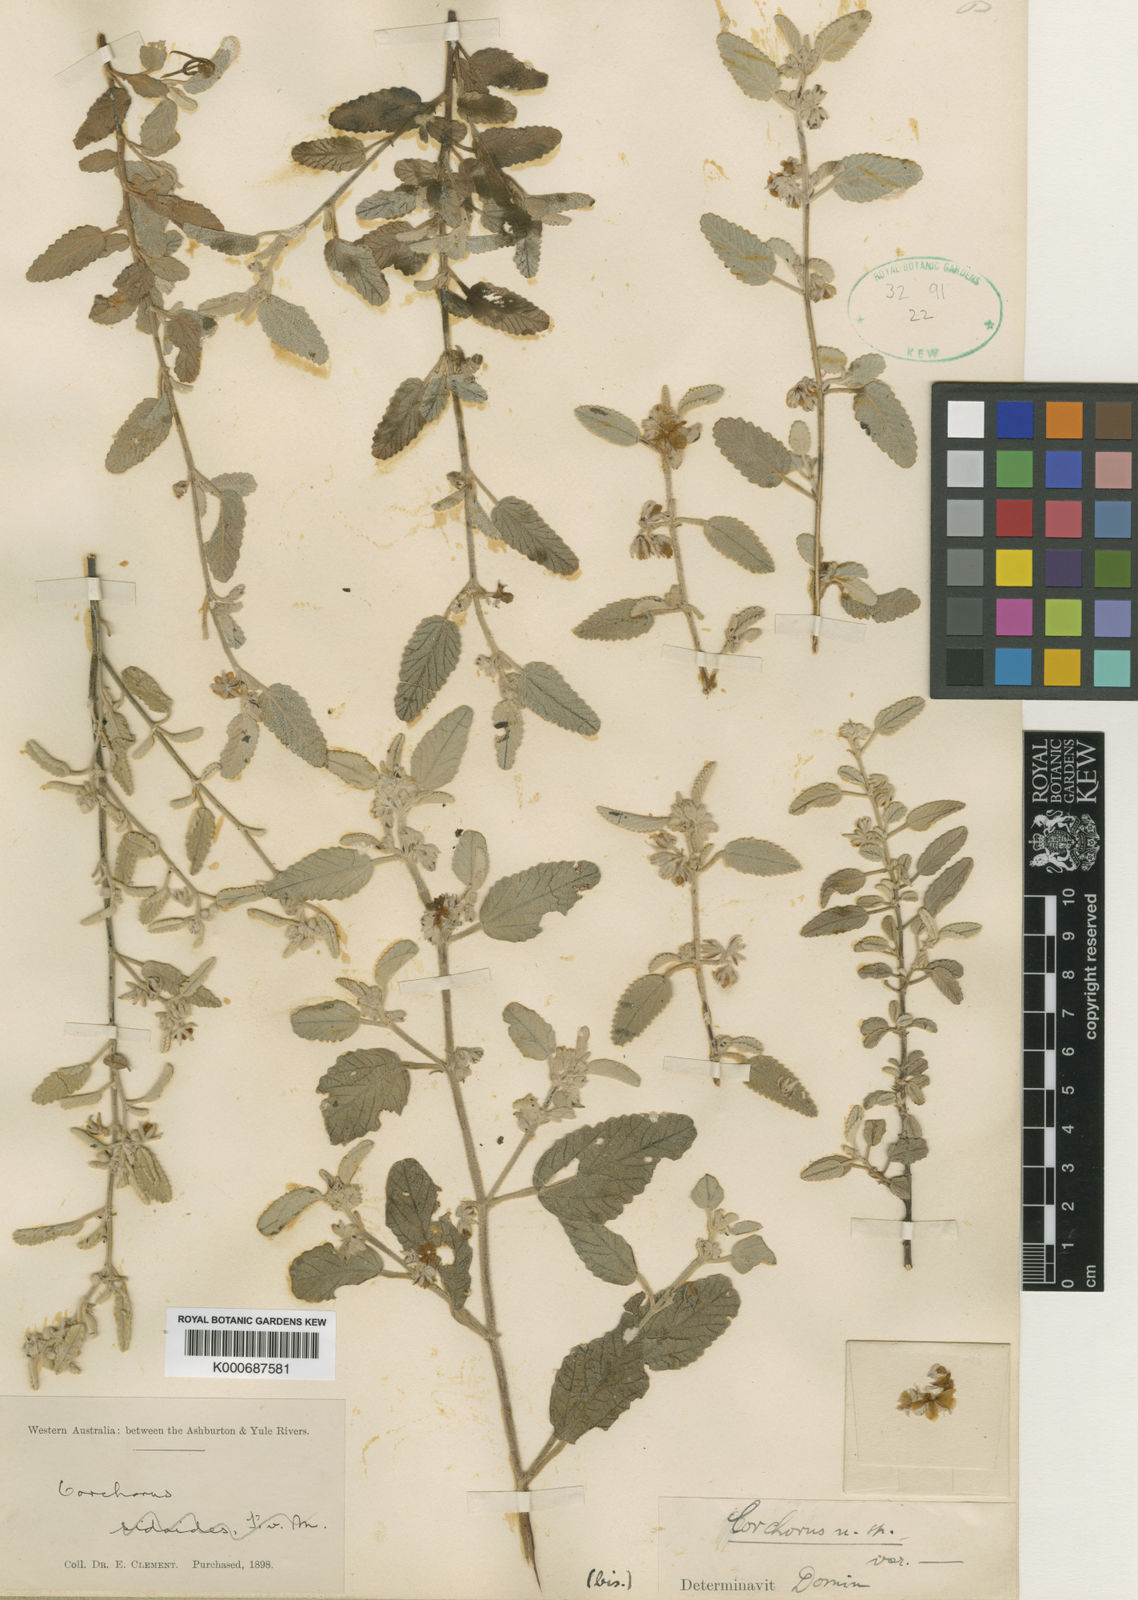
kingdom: Plantae
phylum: Tracheophyta
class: Magnoliopsida
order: Malvales
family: Malvaceae
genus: Corchorus
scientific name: Corchorus parviflorus
